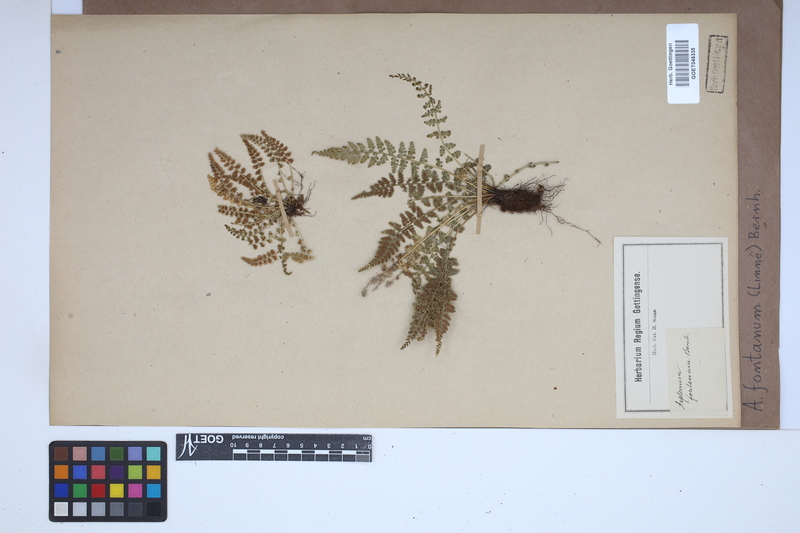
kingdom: Plantae
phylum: Tracheophyta
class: Polypodiopsida
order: Polypodiales
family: Aspleniaceae
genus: Asplenium
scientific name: Asplenium fontanum
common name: Fountain spleenwort
